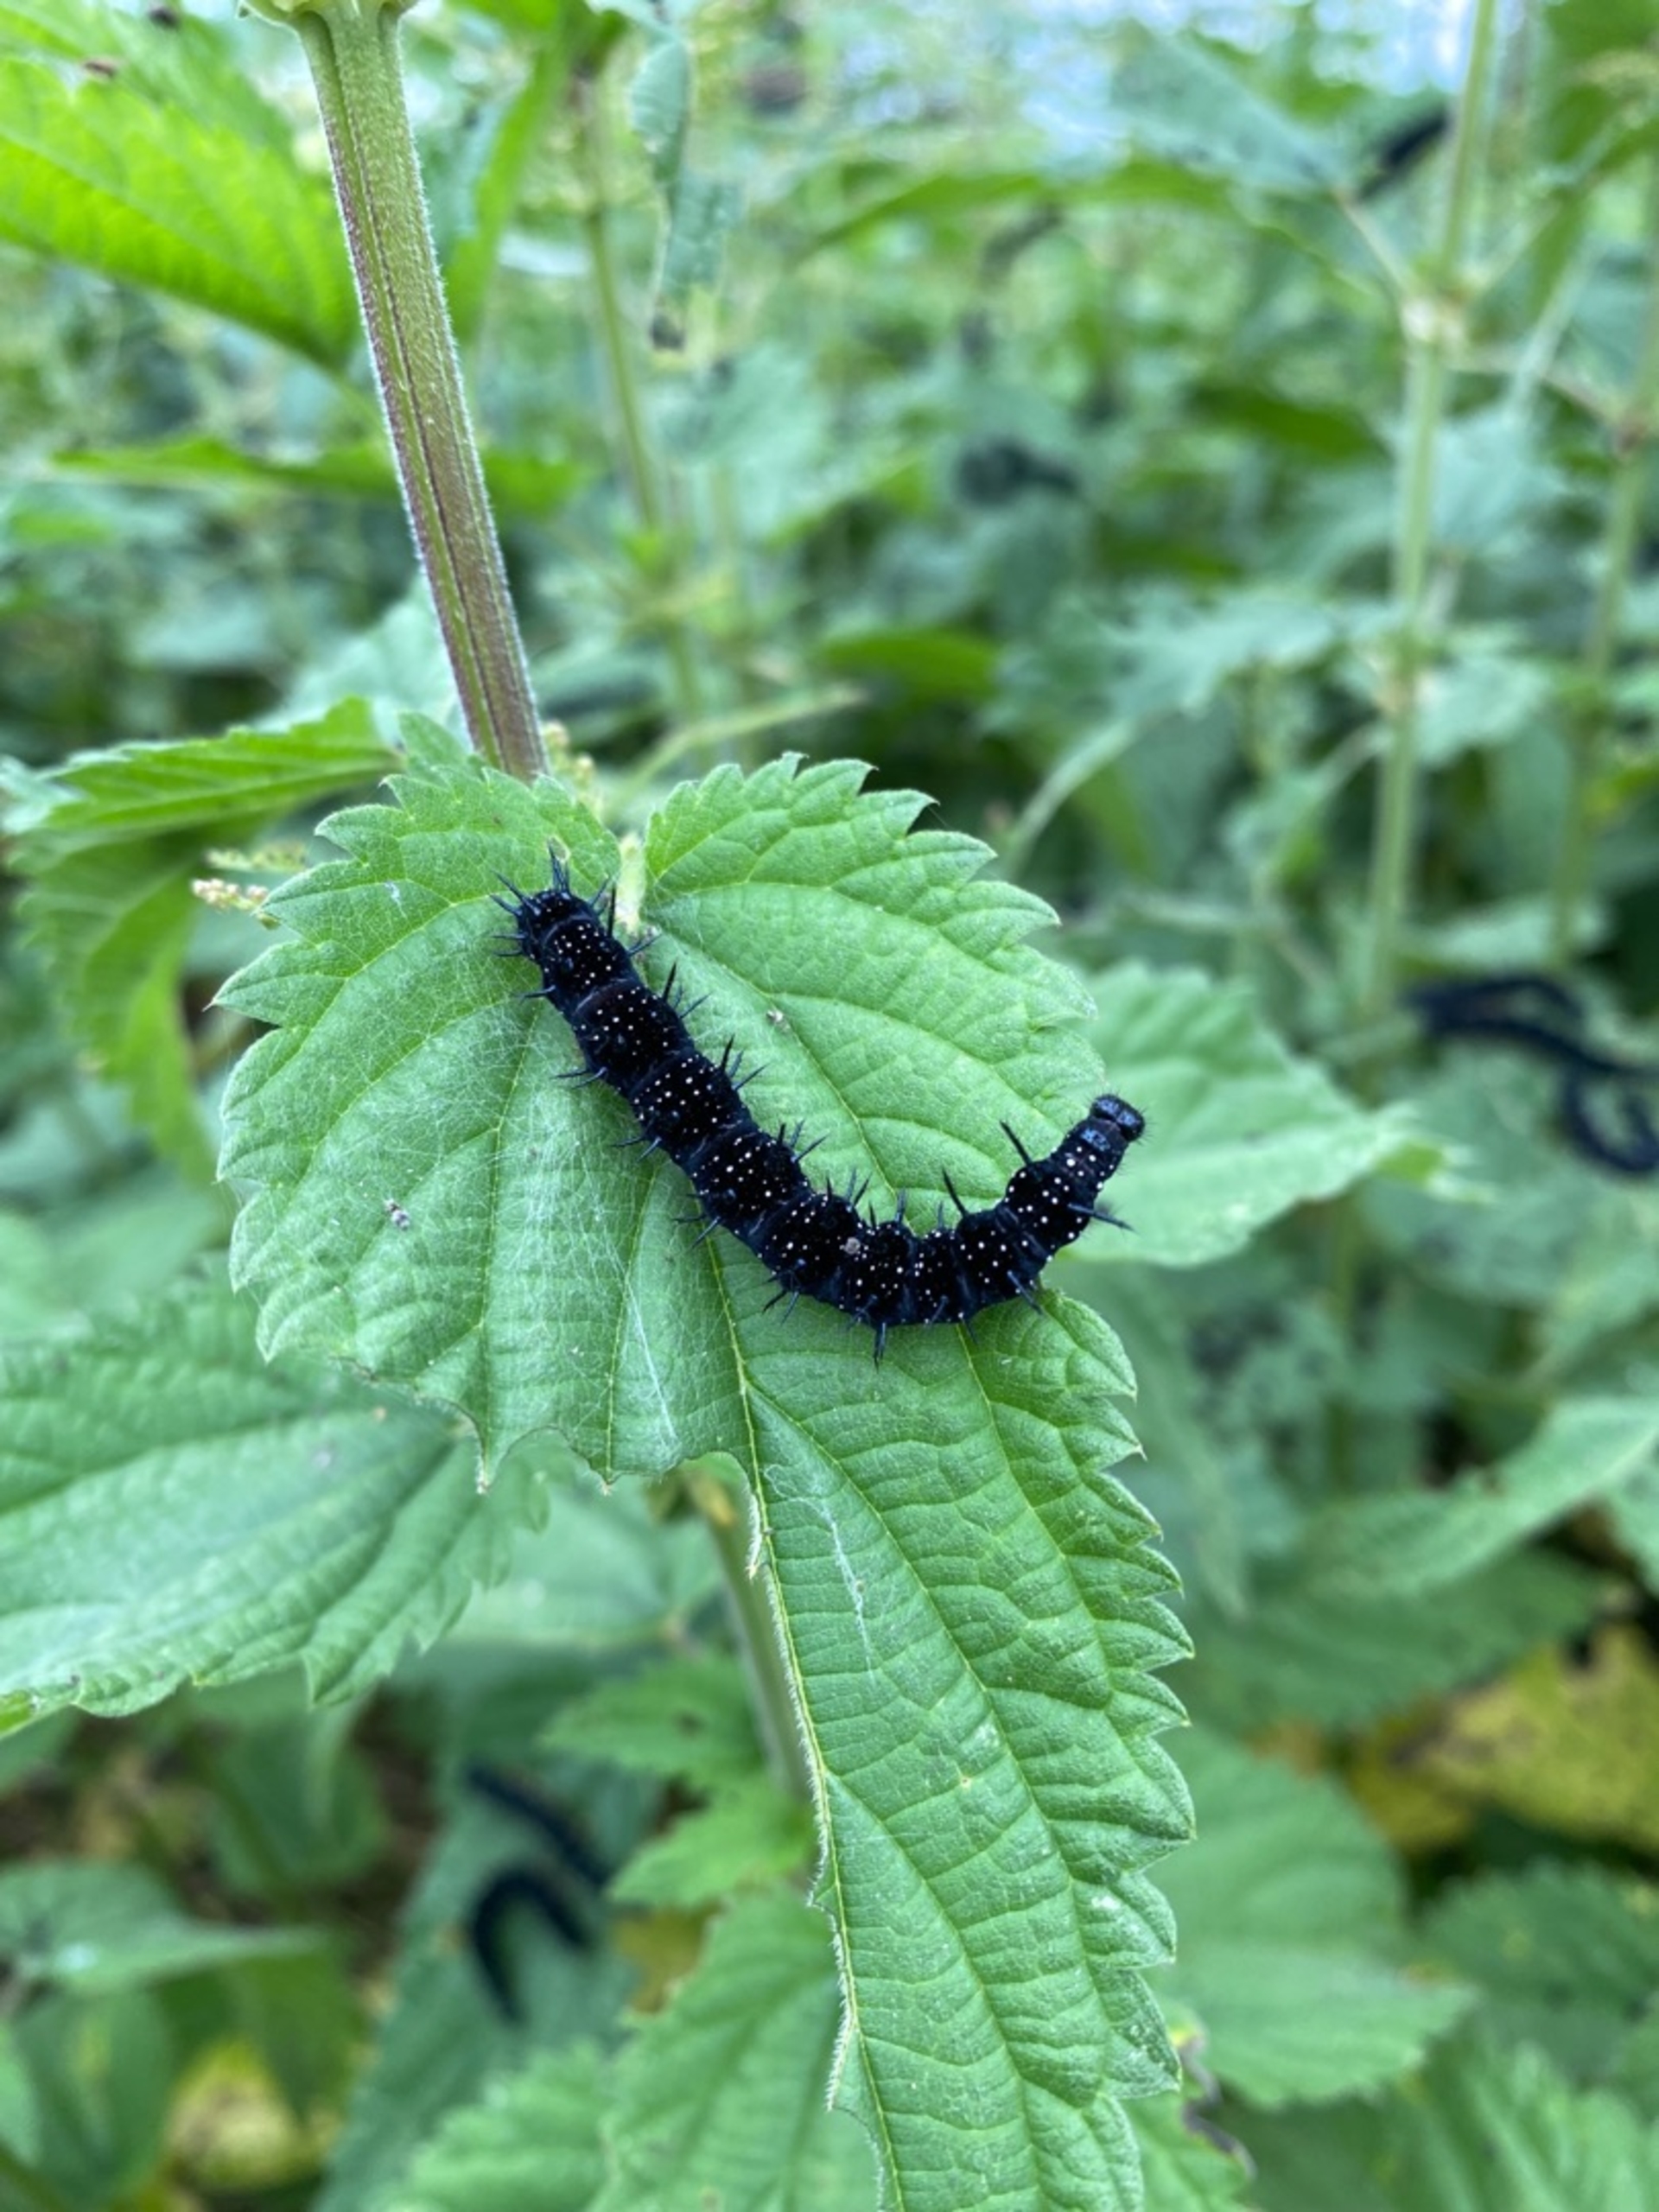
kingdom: Animalia
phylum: Arthropoda
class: Insecta
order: Lepidoptera
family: Nymphalidae
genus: Aglais
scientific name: Aglais io
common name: Dagpåfugleøje
